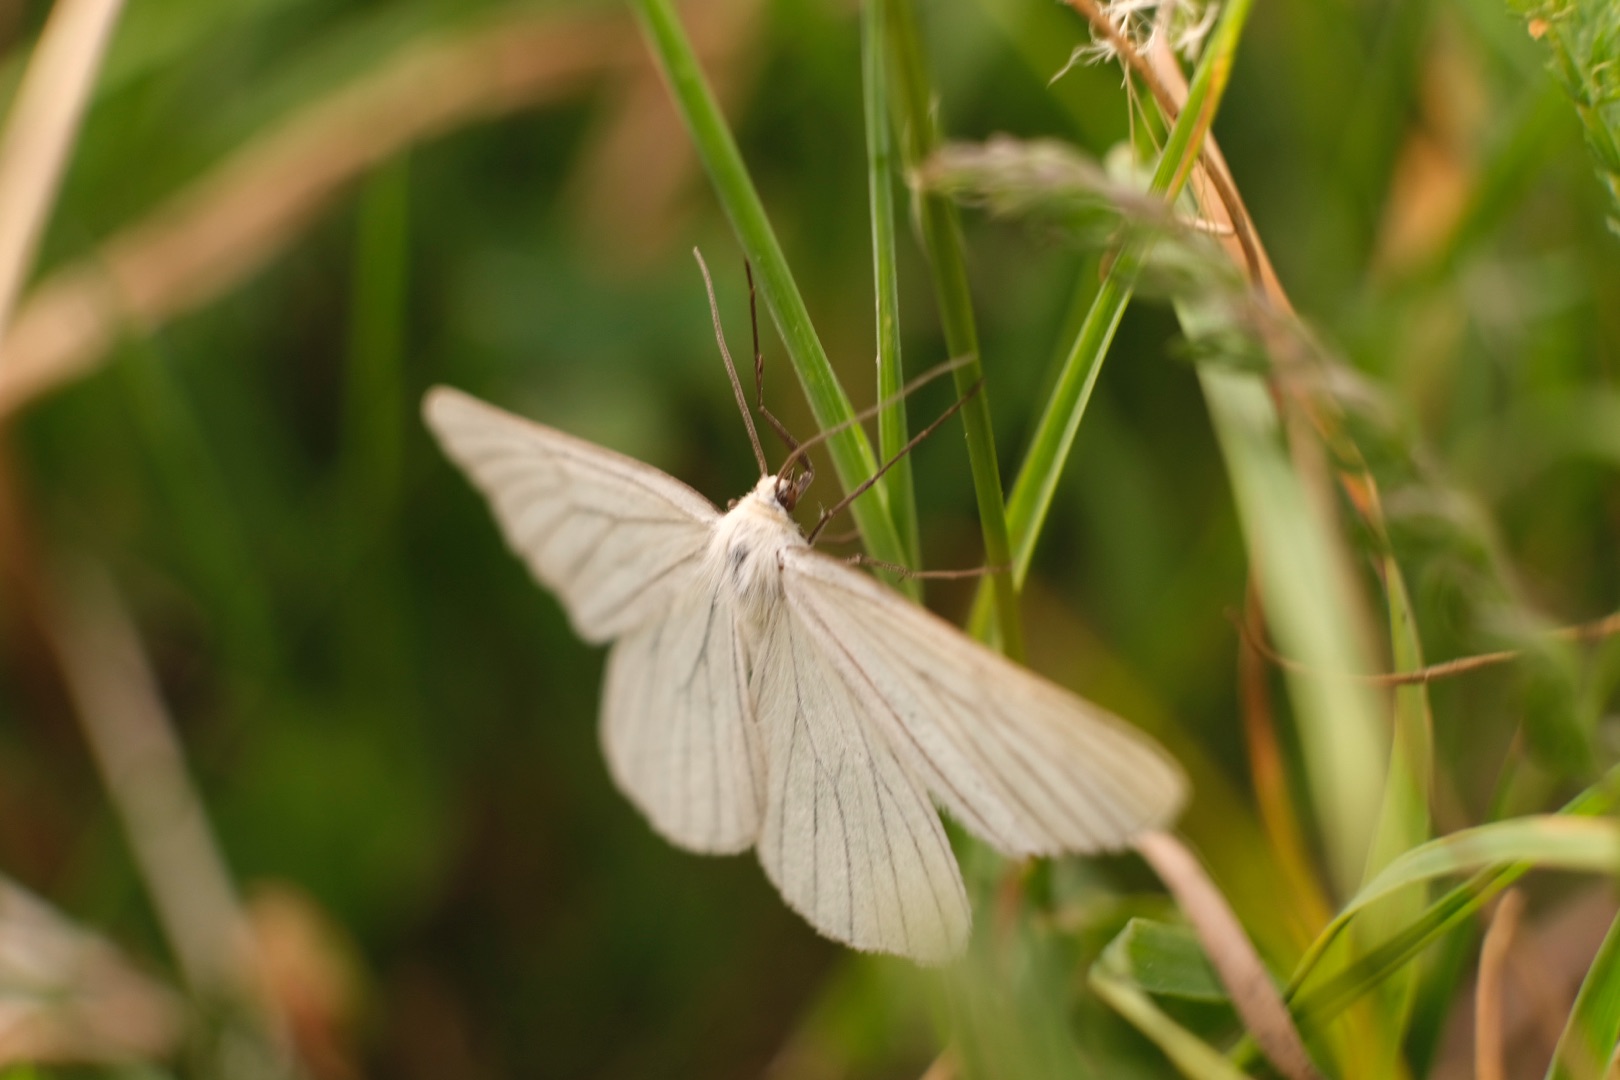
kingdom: Animalia
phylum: Arthropoda
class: Insecta
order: Lepidoptera
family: Geometridae
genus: Siona
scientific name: Siona lineata
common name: Hvidvingemåler
